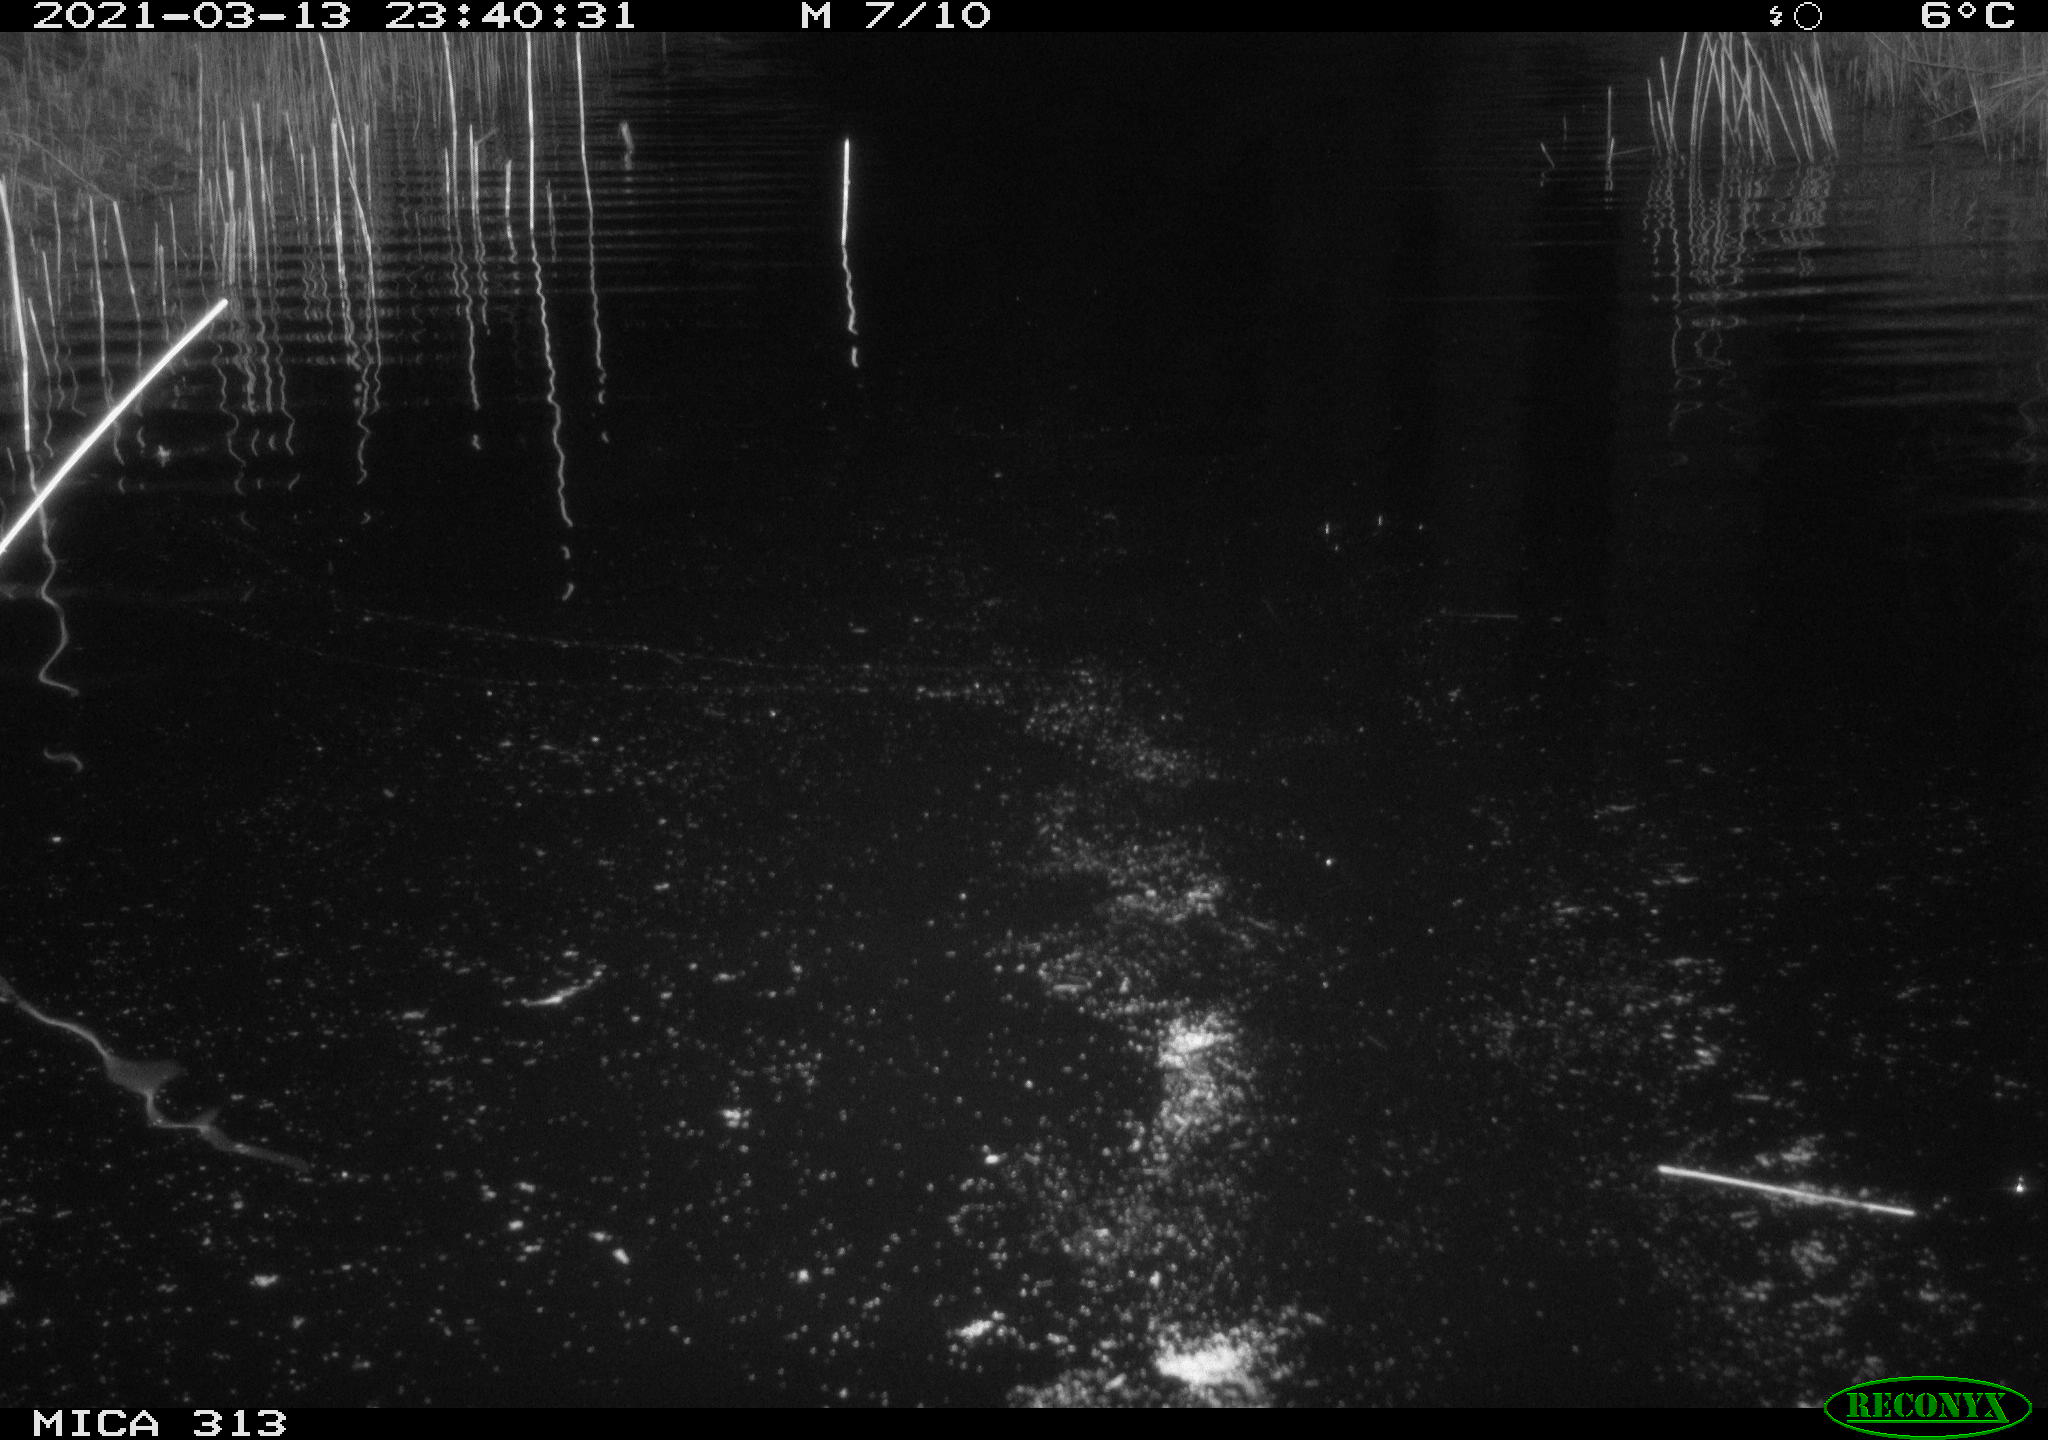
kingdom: Animalia
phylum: Chordata
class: Mammalia
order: Rodentia
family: Cricetidae
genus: Ondatra
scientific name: Ondatra zibethicus
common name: Muskrat
